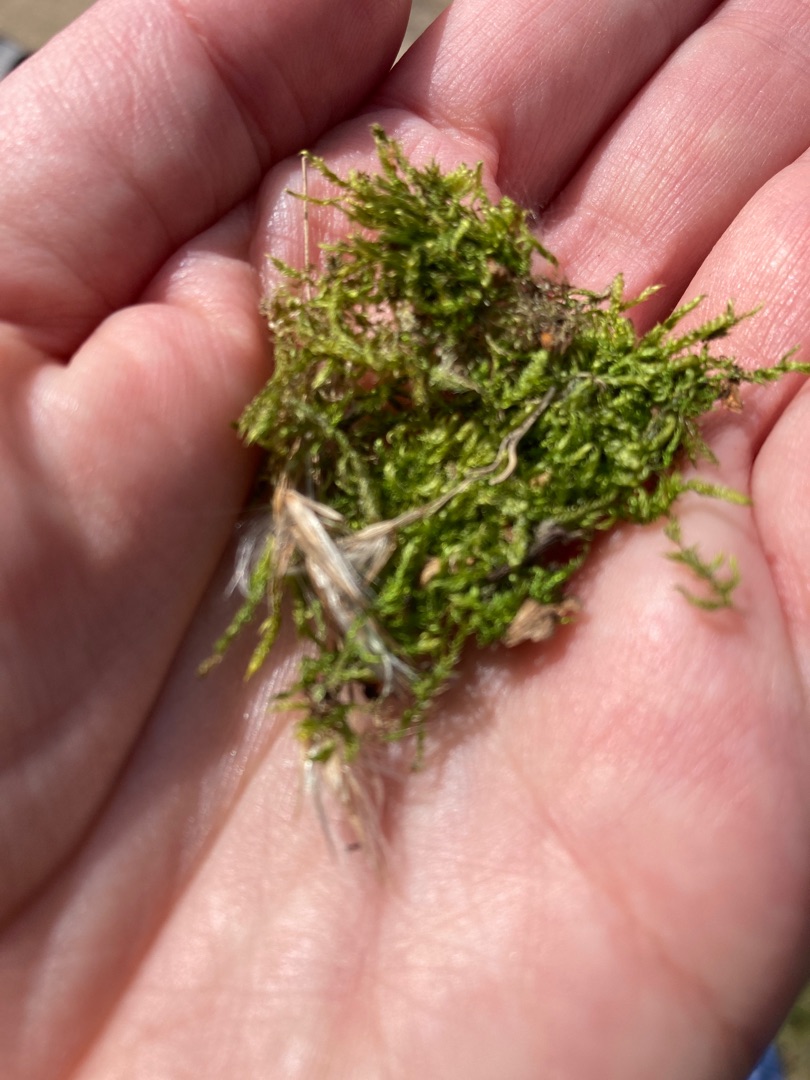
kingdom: Plantae
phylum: Bryophyta
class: Bryopsida
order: Hypnales
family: Hypnaceae
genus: Hypnum
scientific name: Hypnum
